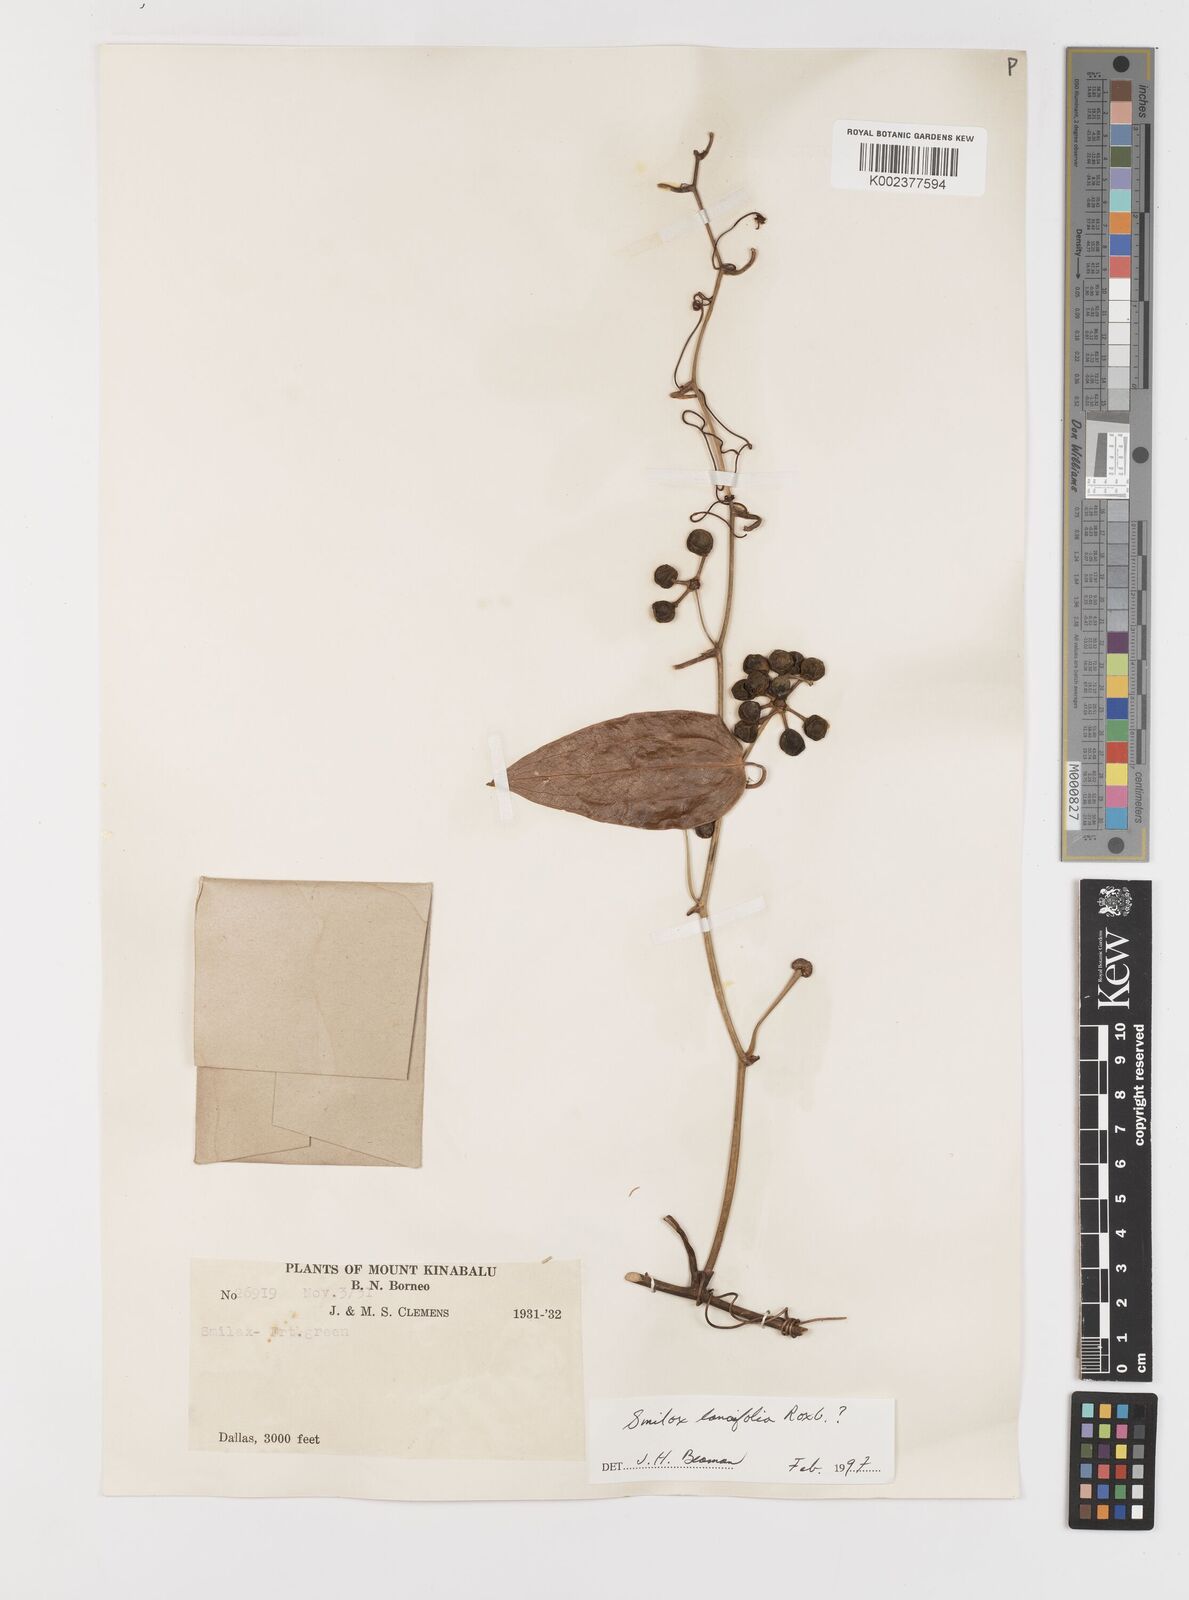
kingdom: Plantae
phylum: Tracheophyta
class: Liliopsida
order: Liliales
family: Smilacaceae
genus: Smilax
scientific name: Smilax lanceifolia
